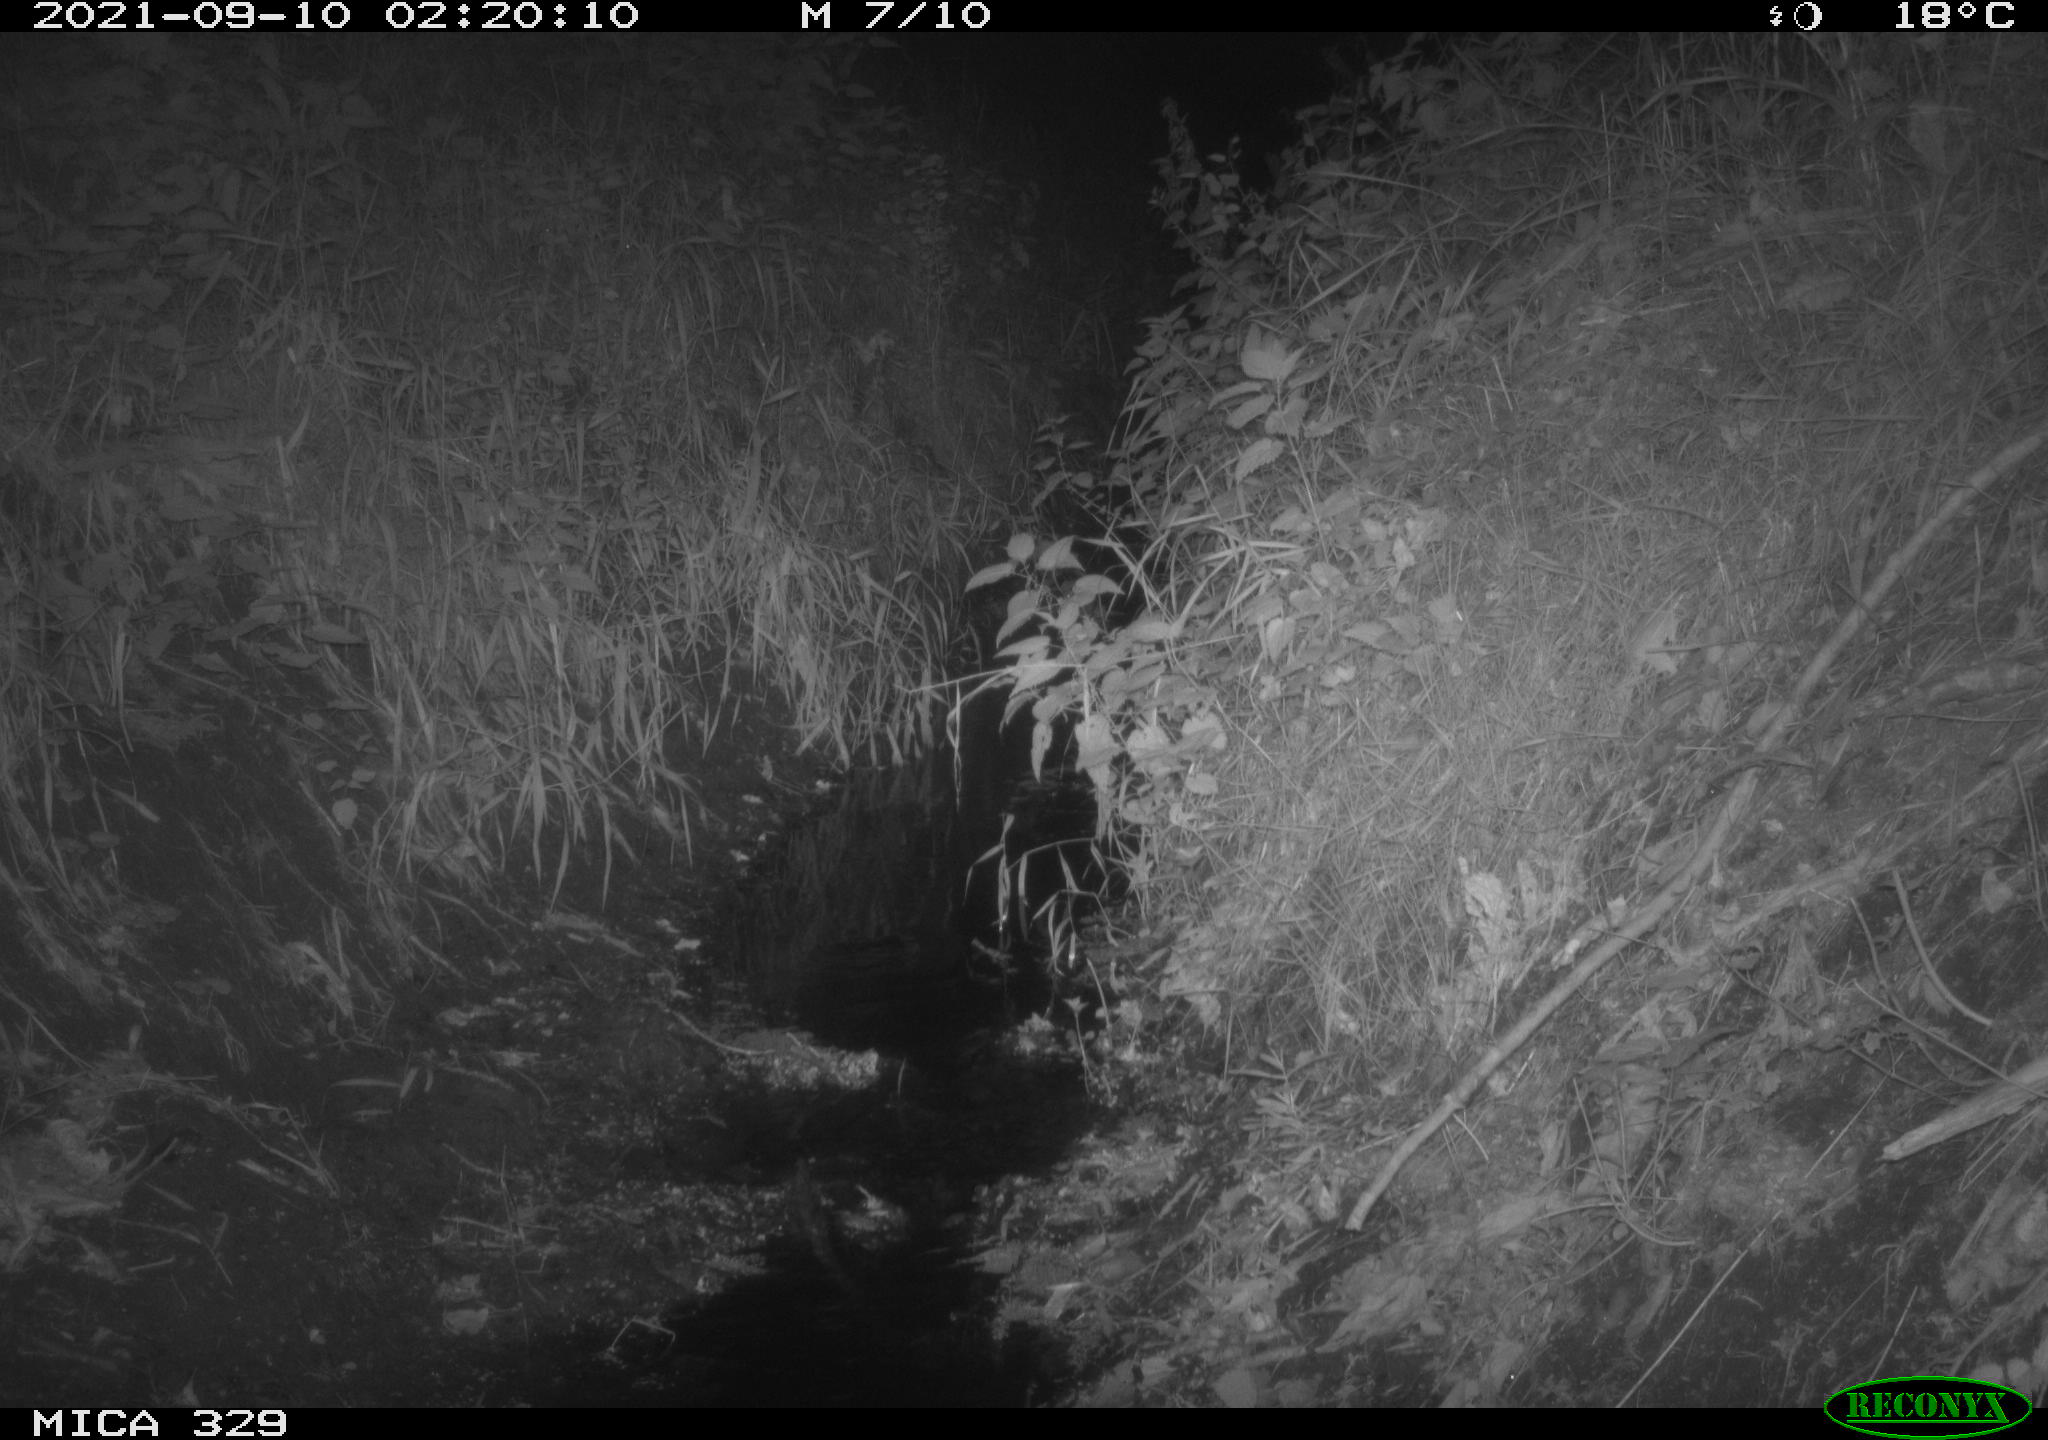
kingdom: Animalia
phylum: Chordata
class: Mammalia
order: Carnivora
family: Canidae
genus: Vulpes
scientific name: Vulpes vulpes
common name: Red fox
